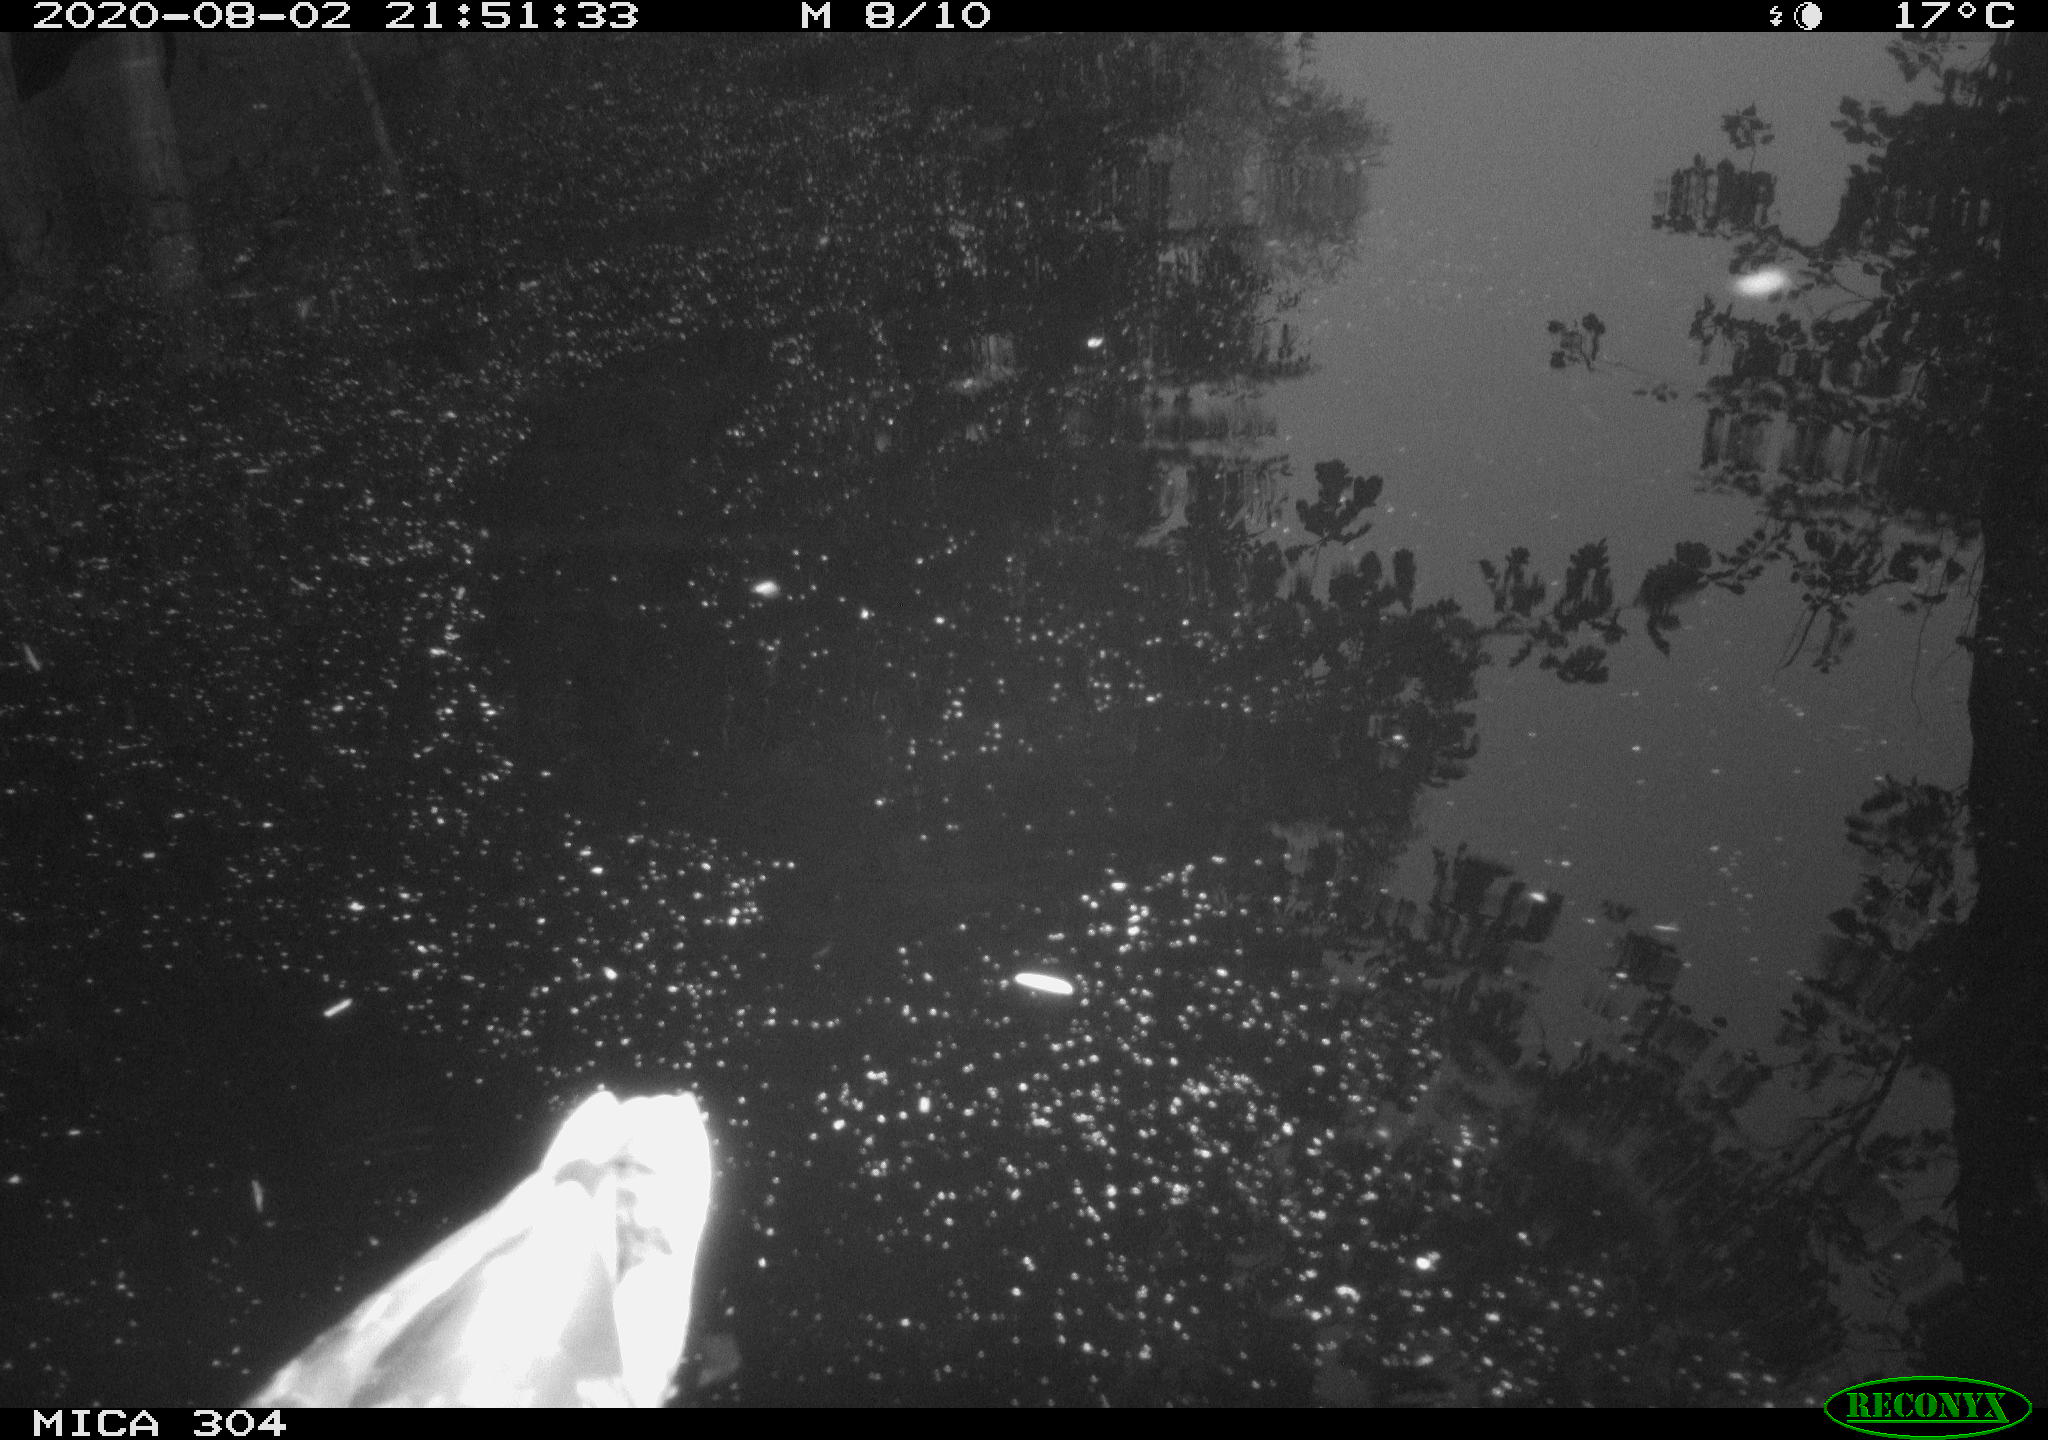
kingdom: Animalia
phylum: Chordata
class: Aves
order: Anseriformes
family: Anatidae
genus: Anas
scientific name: Anas platyrhynchos
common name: Mallard
